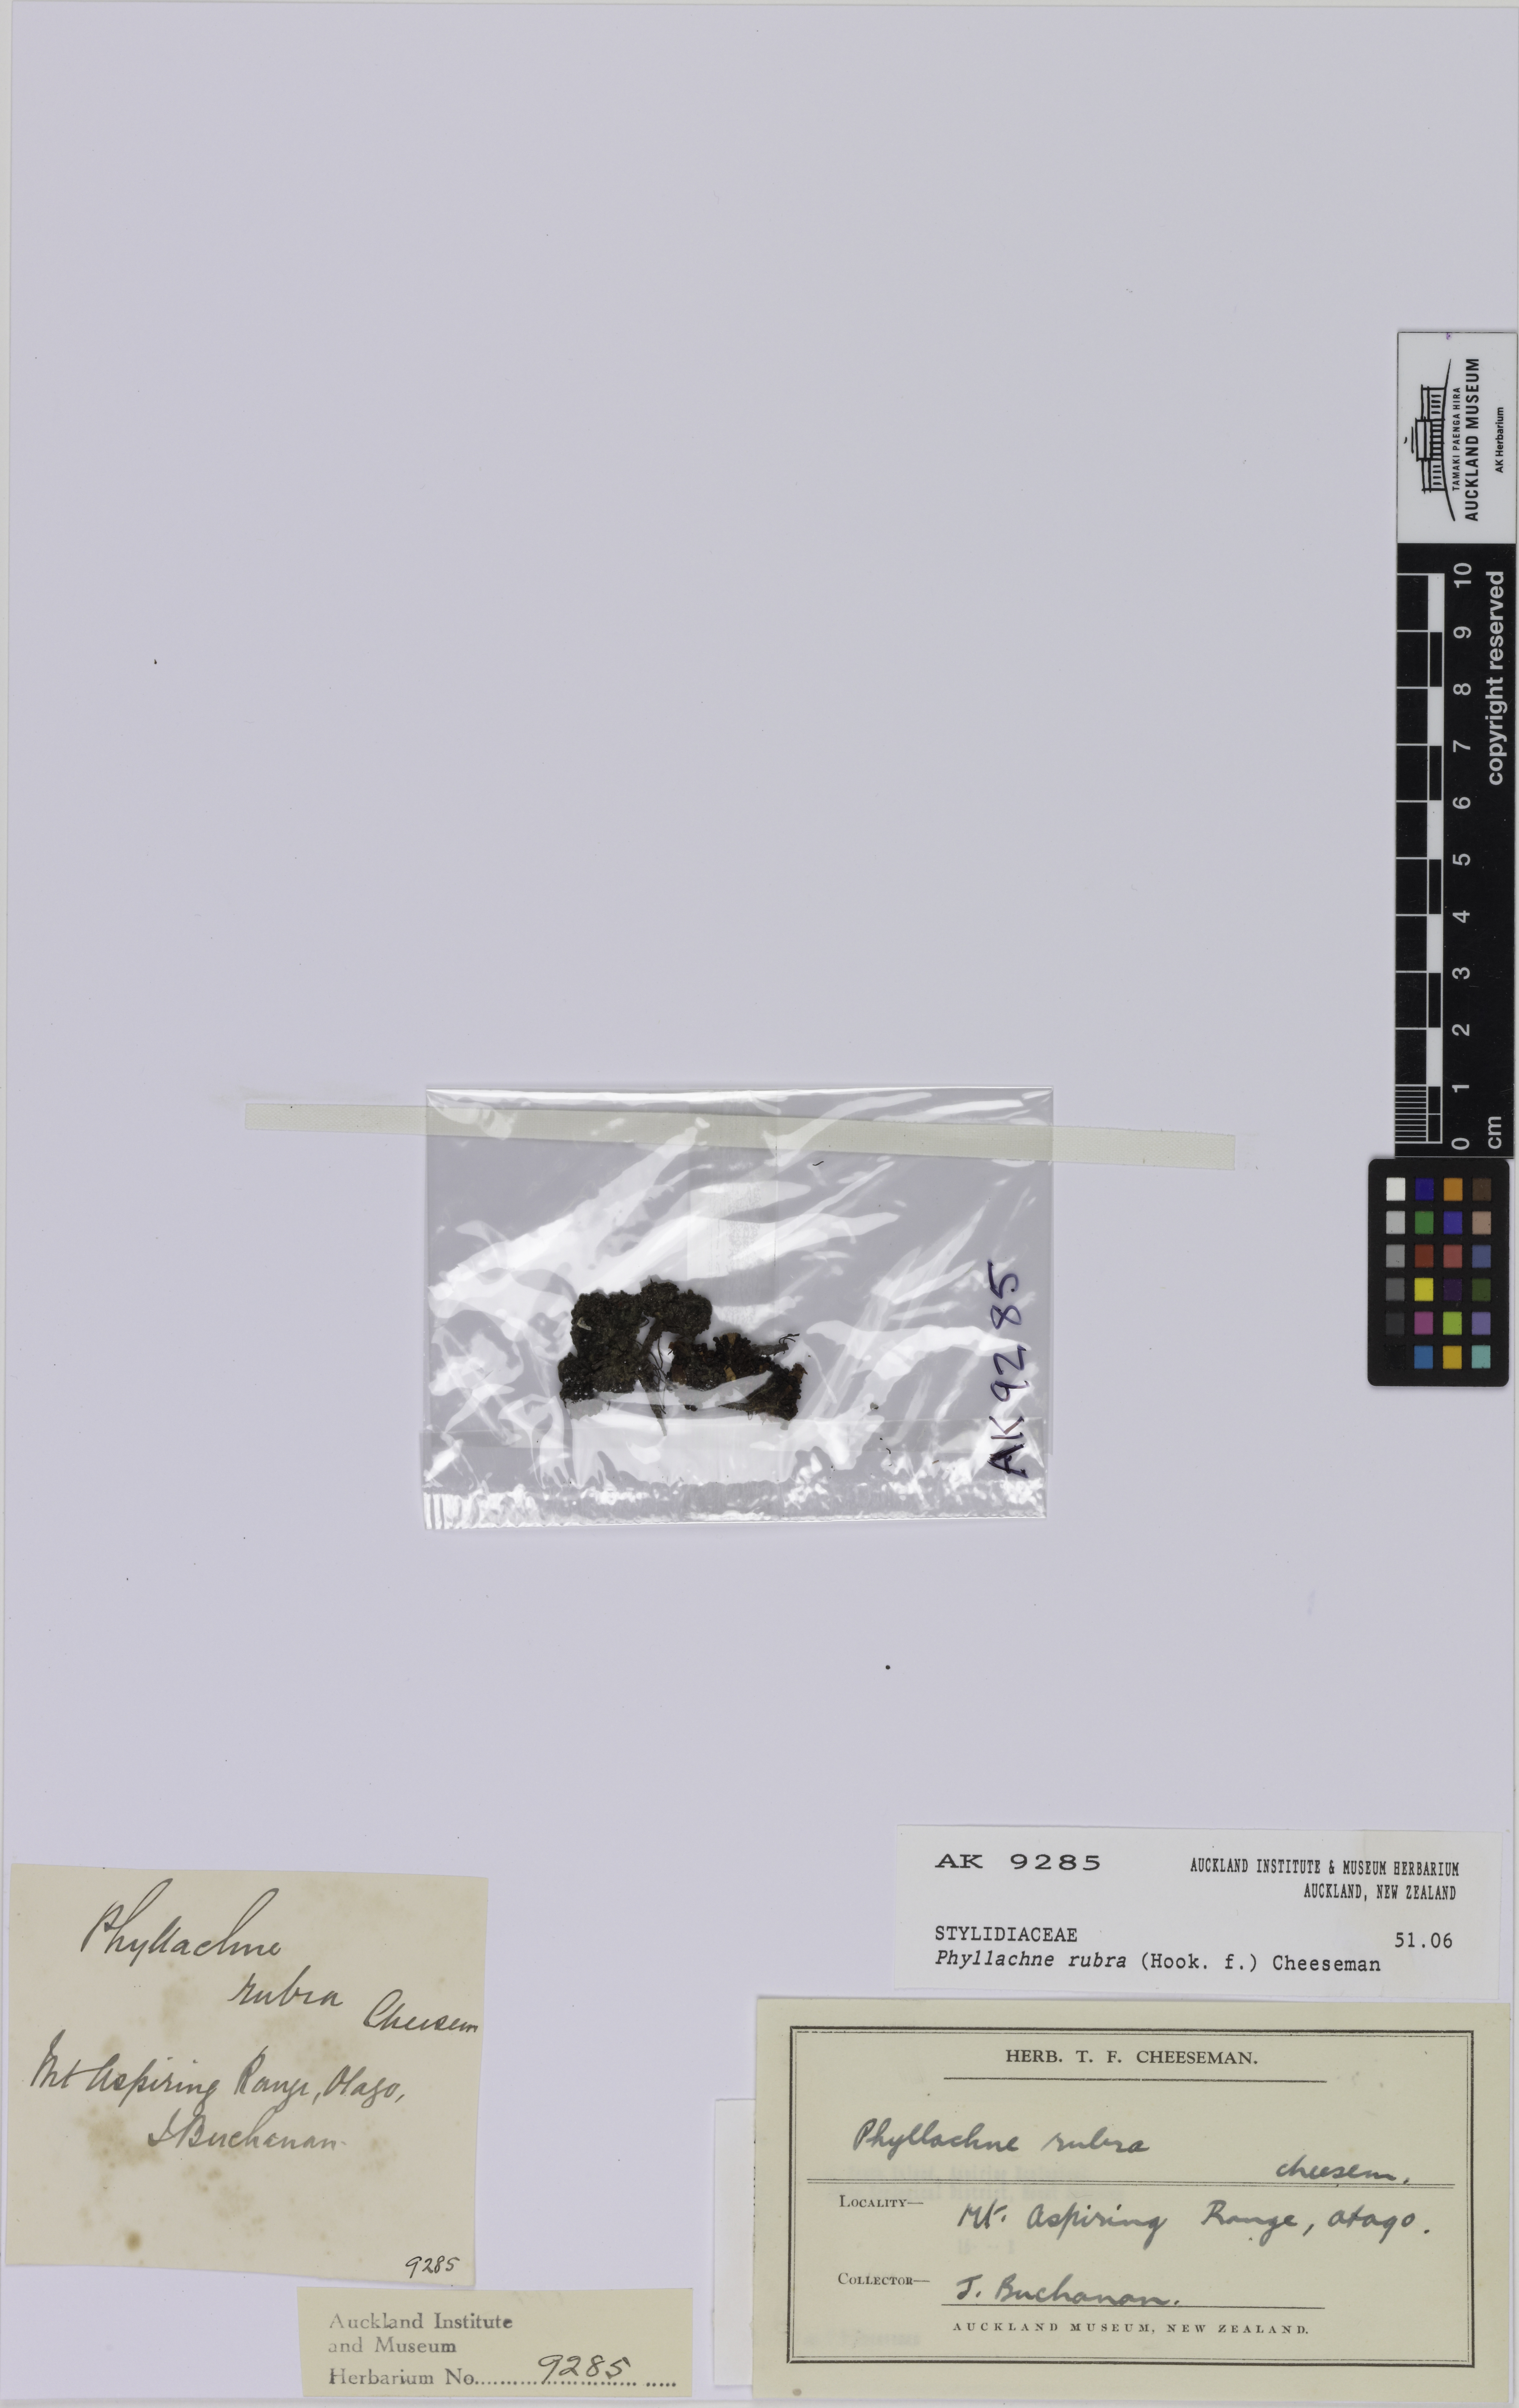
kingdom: Plantae
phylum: Tracheophyta
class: Magnoliopsida
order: Asterales
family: Stylidiaceae
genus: Phyllachne
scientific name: Phyllachne rubra
